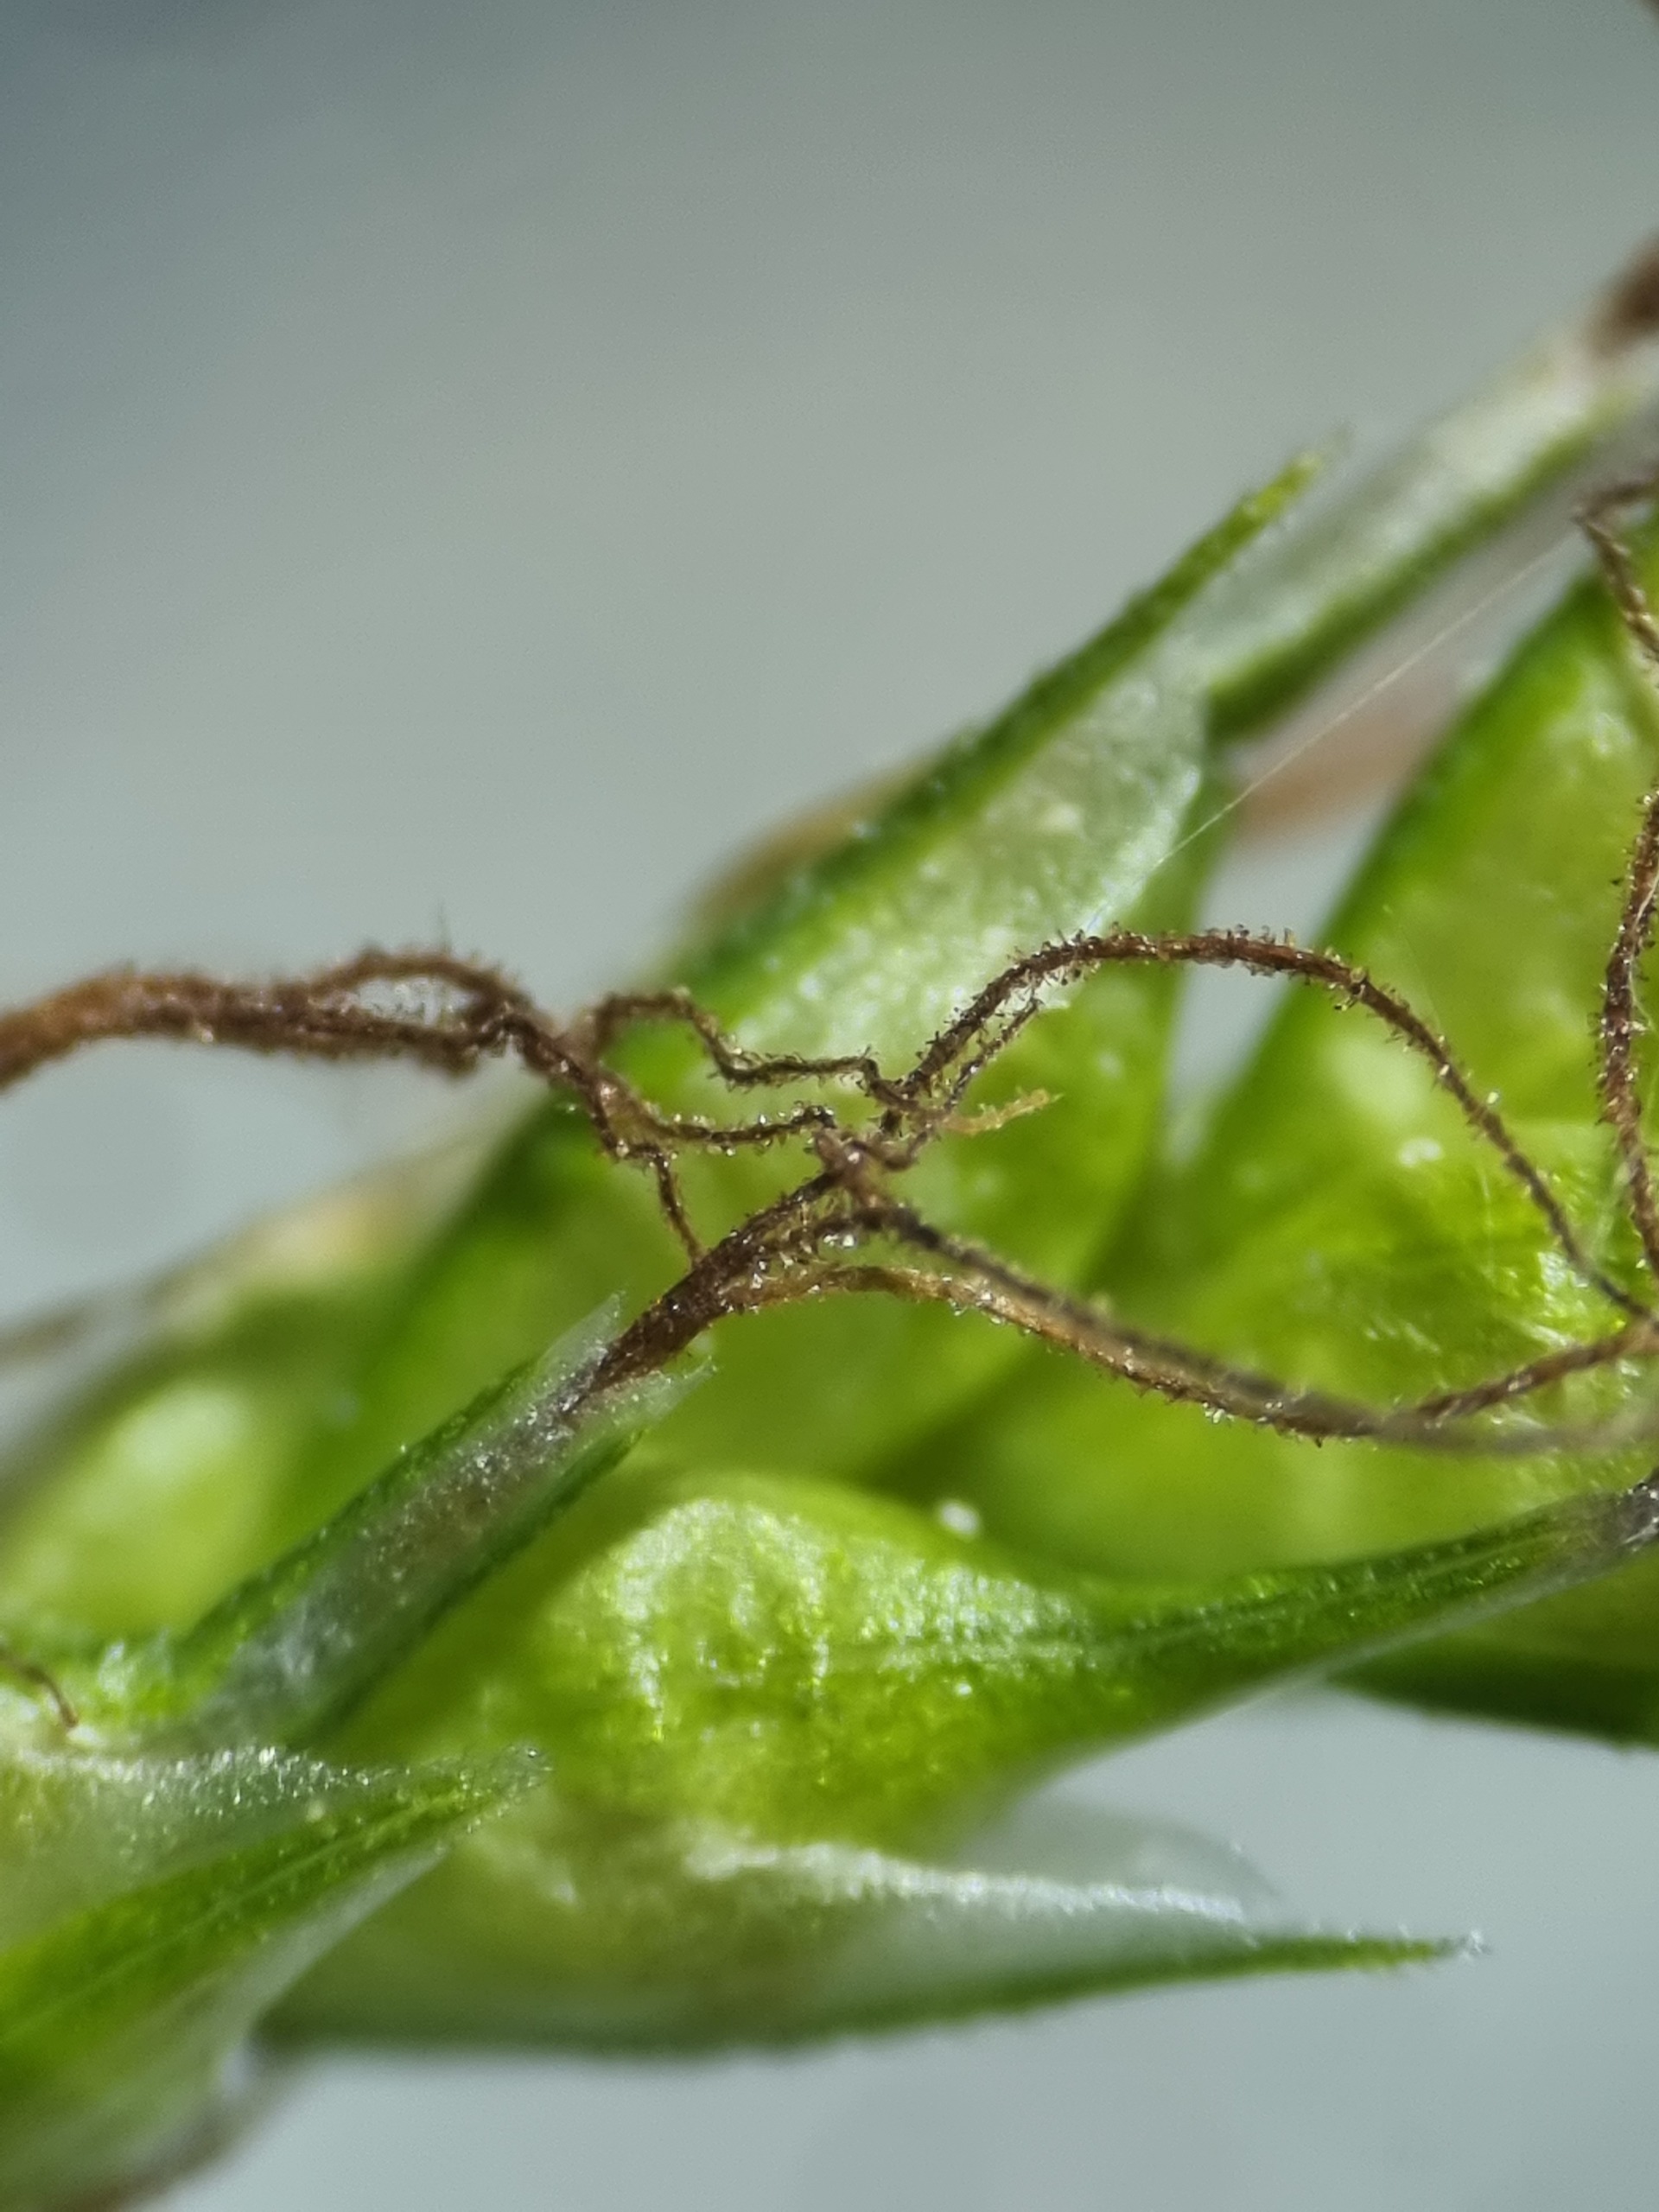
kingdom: Plantae
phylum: Tracheophyta
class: Liliopsida
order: Poales
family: Cyperaceae
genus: Carex
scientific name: Carex sylvatica
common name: Skov-star
